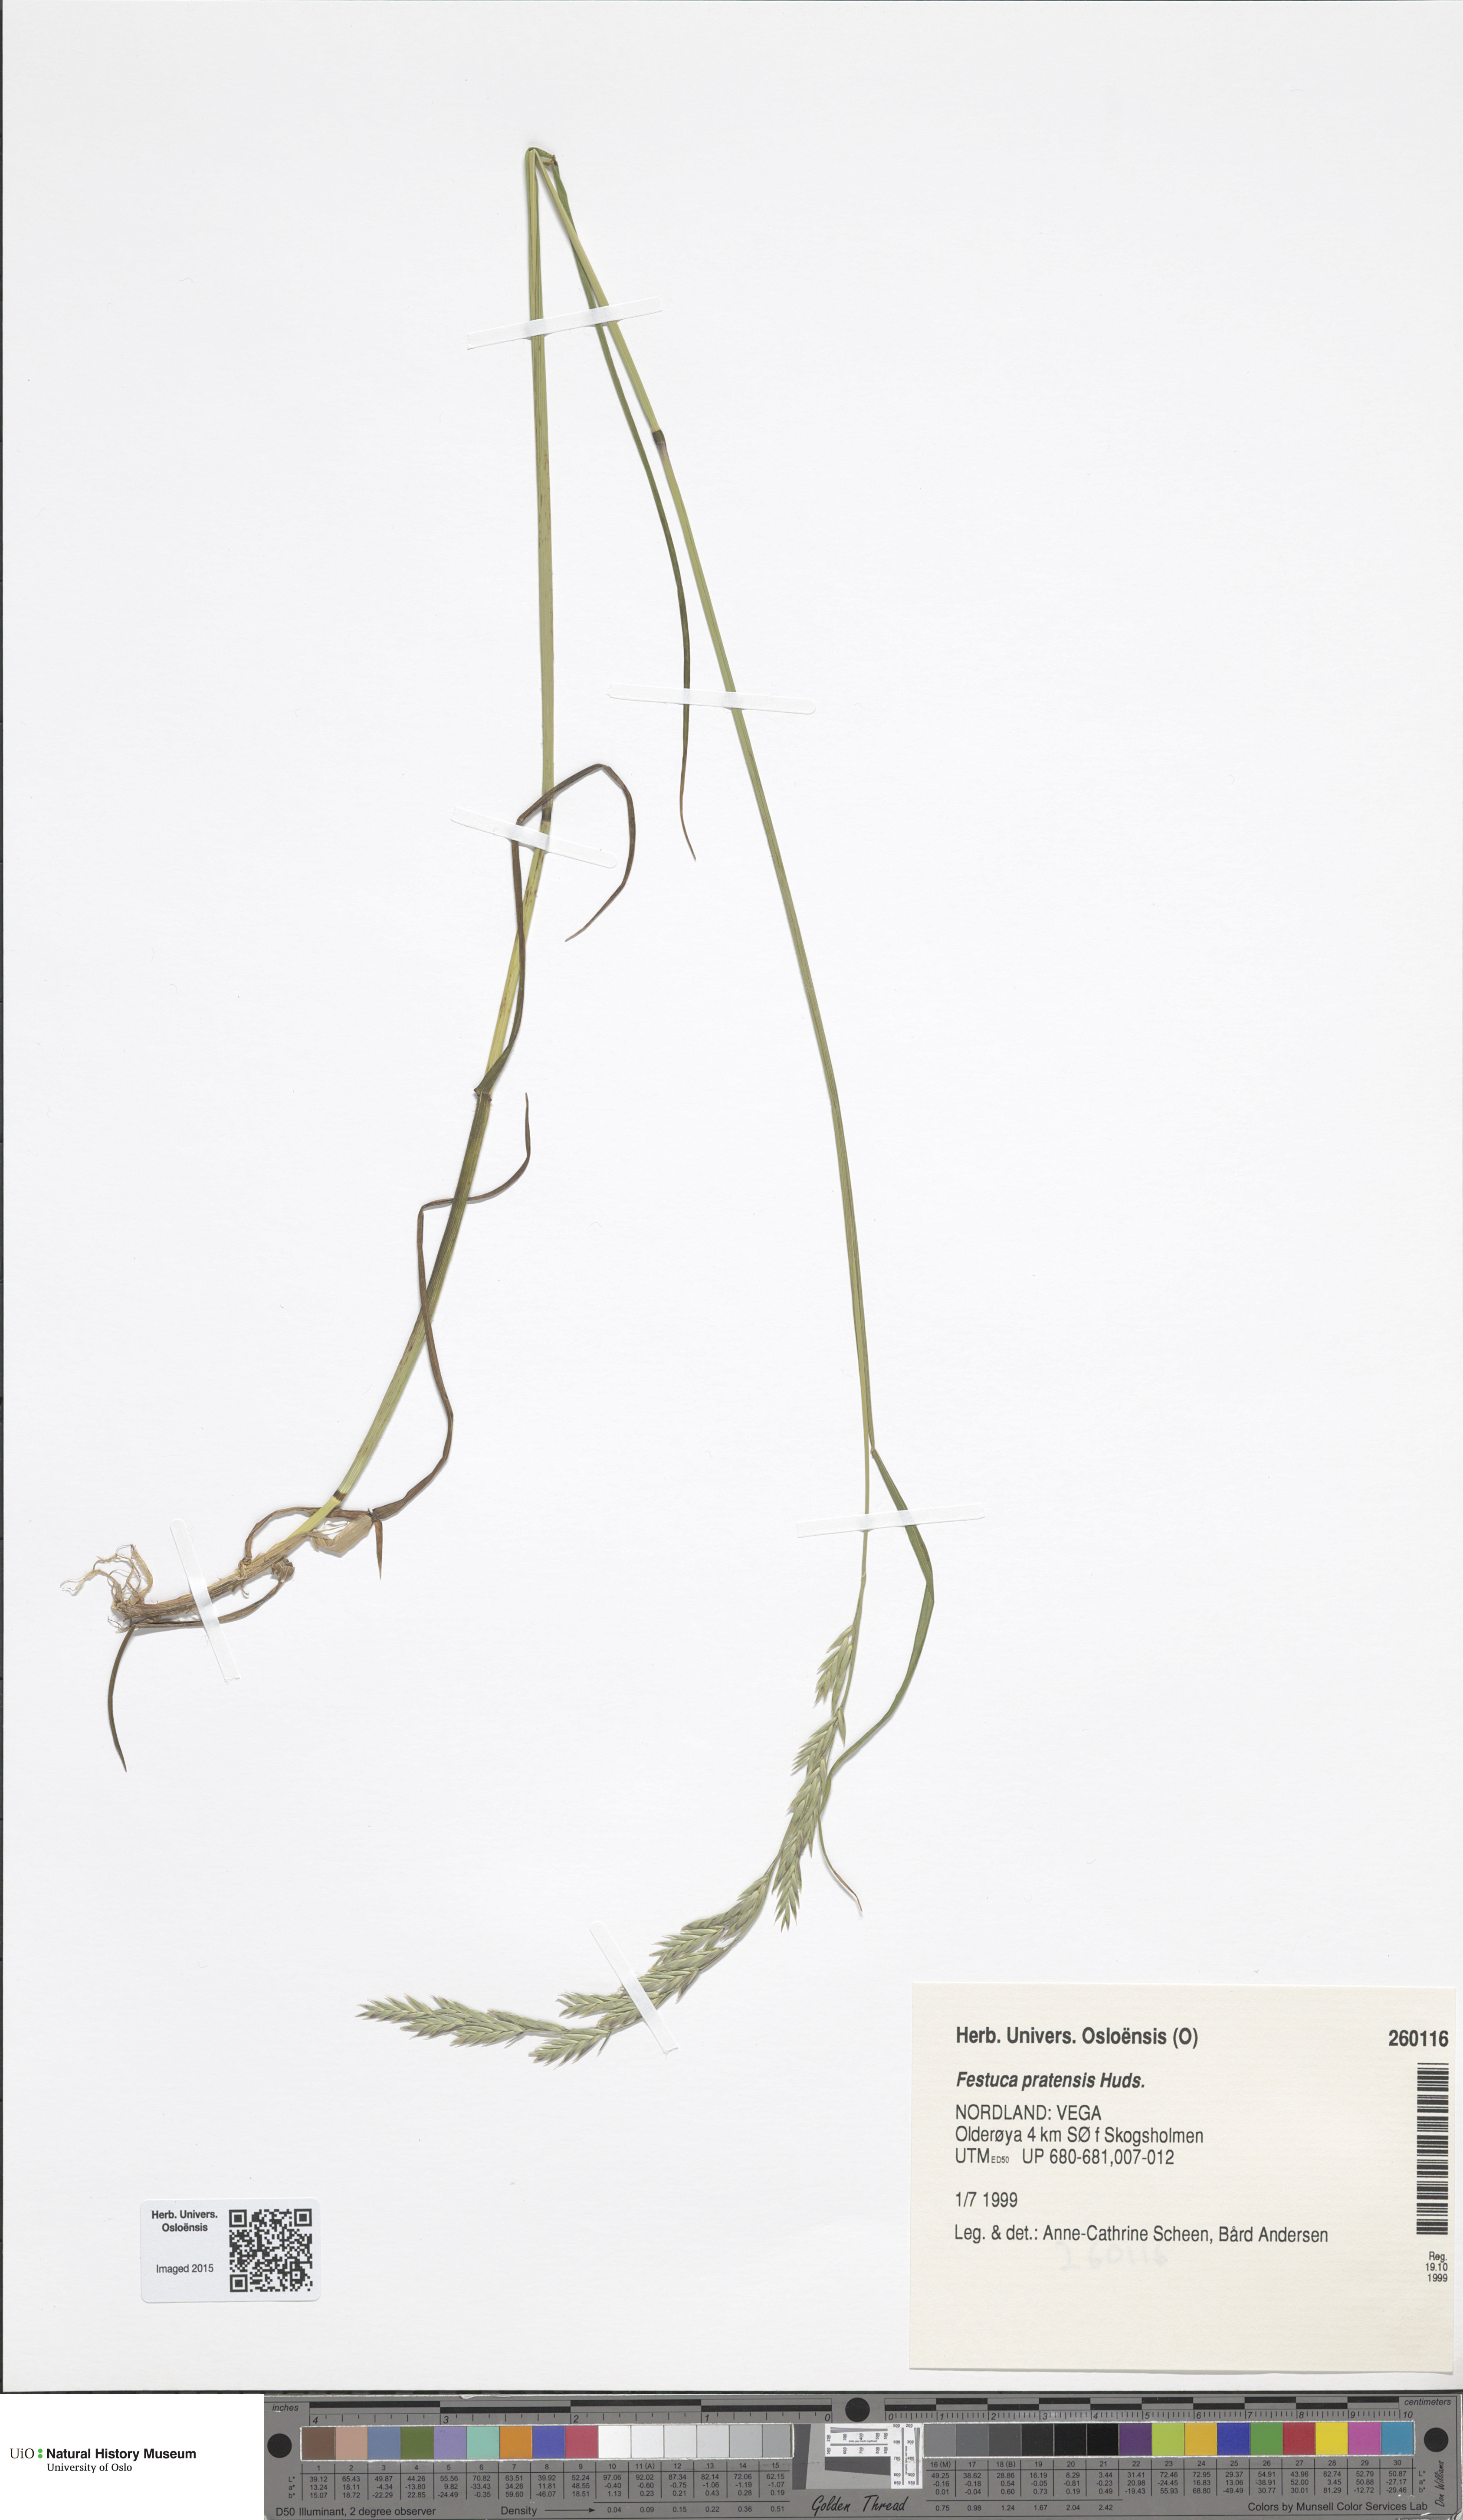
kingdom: Plantae
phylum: Tracheophyta
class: Liliopsida
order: Poales
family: Poaceae
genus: Lolium
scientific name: Lolium pratense
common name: Dover grass
